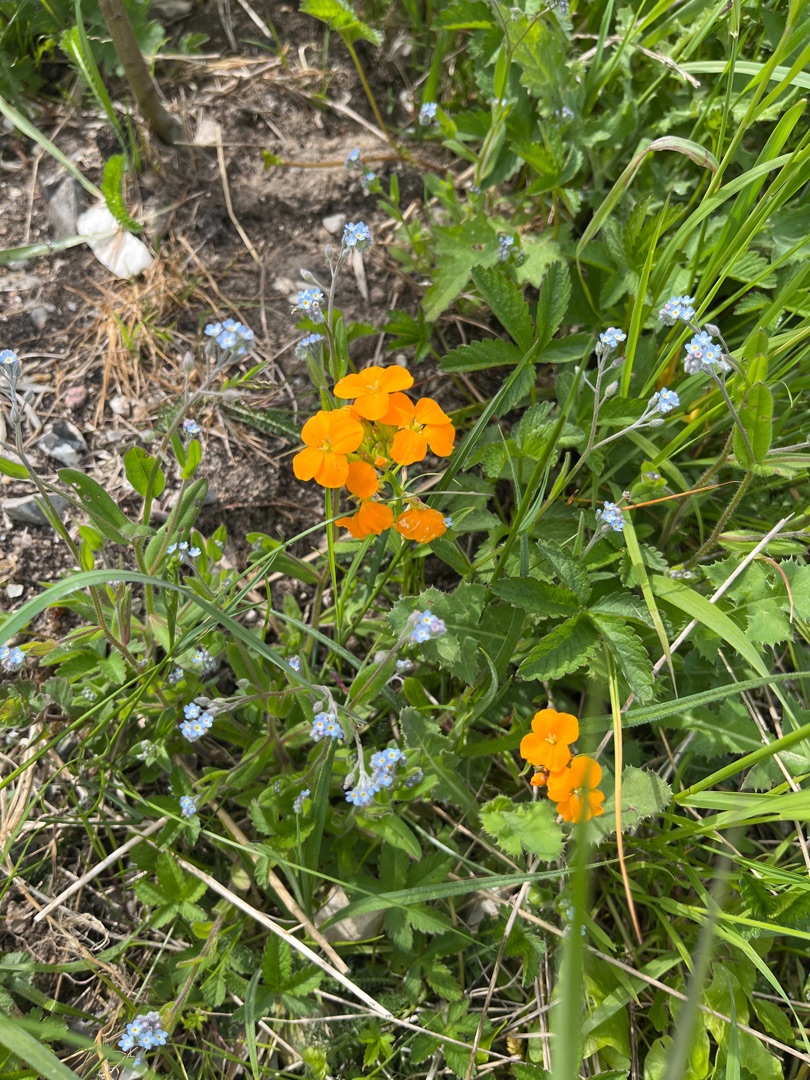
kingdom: Plantae
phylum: Tracheophyta
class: Magnoliopsida
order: Brassicales
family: Brassicaceae
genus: Erysimum
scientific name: Erysimum marshallii
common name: Sibirisk hjørneklap
